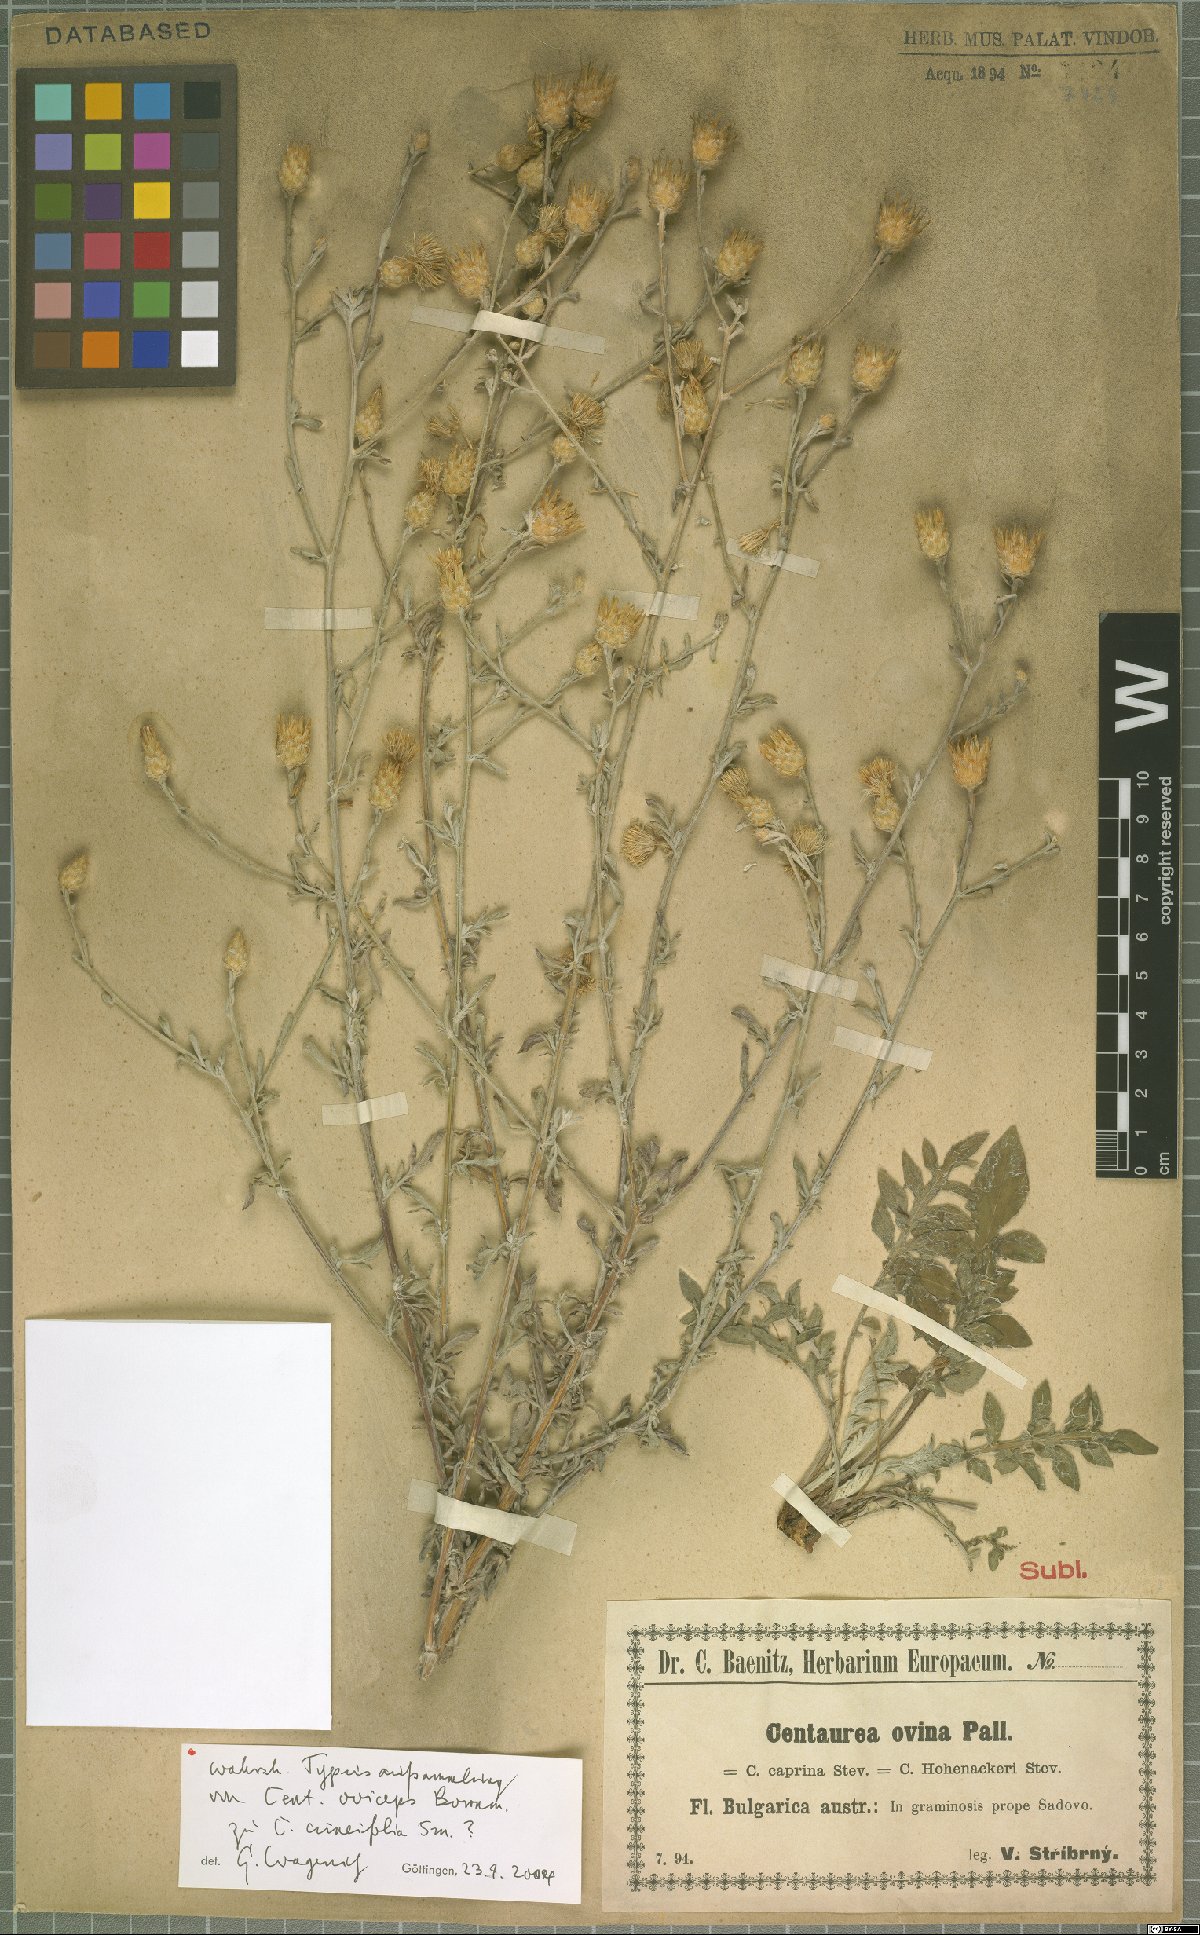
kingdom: Plantae
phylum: Tracheophyta
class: Magnoliopsida
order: Asterales
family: Asteraceae
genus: Centaurea
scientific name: Centaurea cuneifolia
